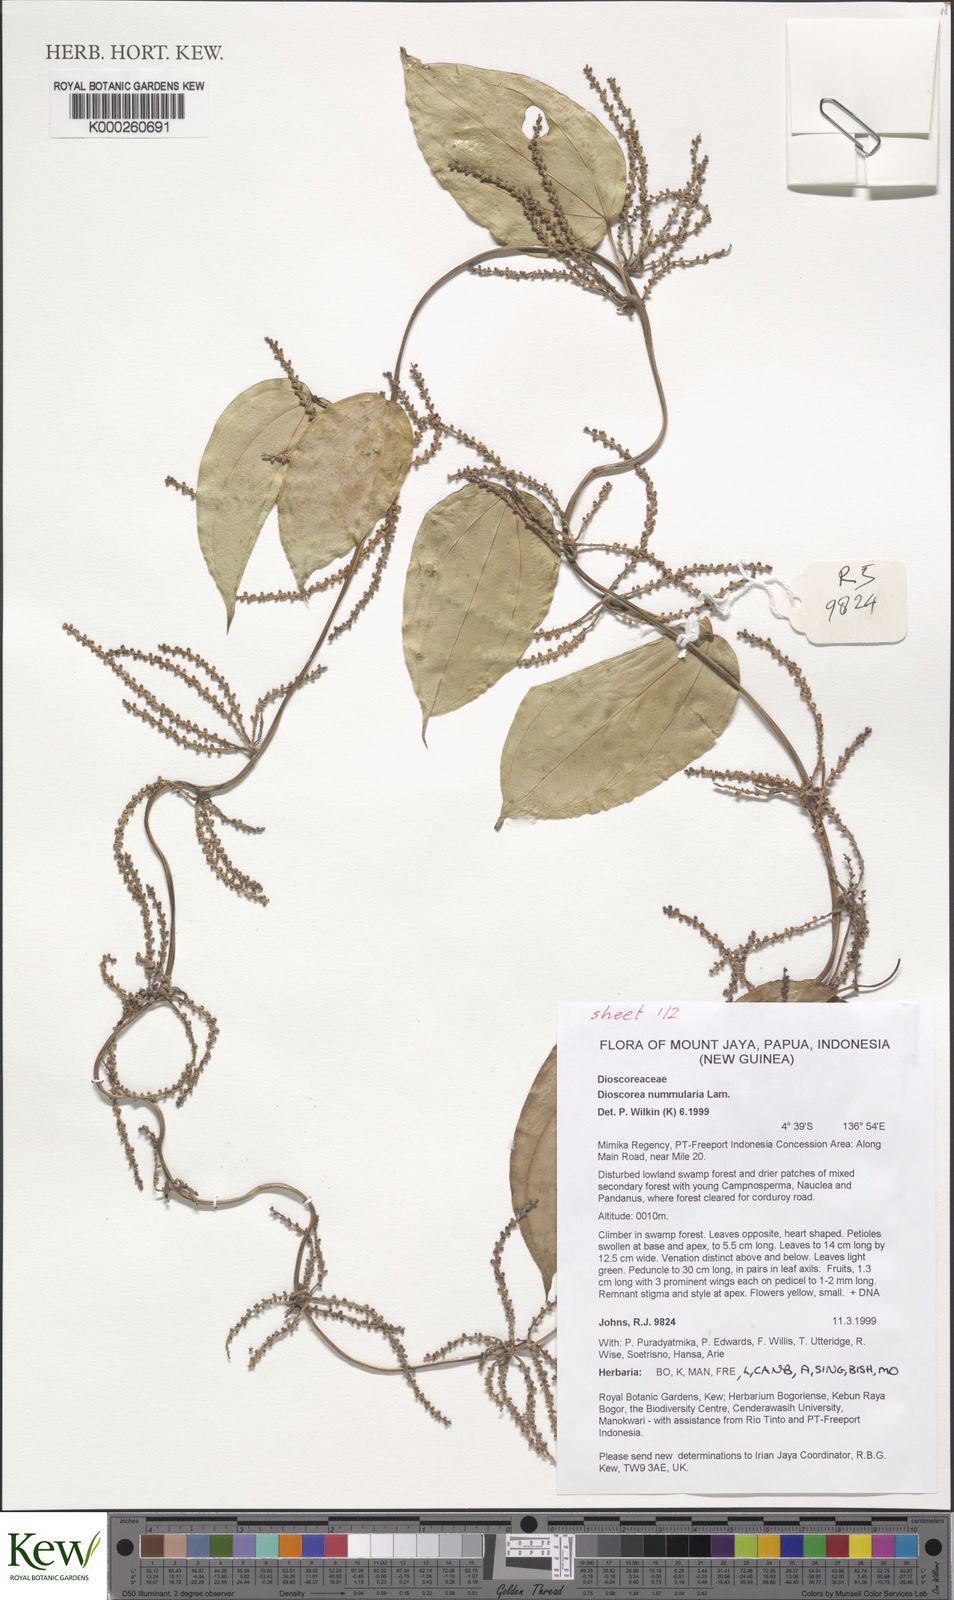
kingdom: Plantae
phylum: Tracheophyta
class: Liliopsida
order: Dioscoreales
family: Dioscoreaceae
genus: Dioscorea
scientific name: Dioscorea nummularia
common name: Pacific yam
